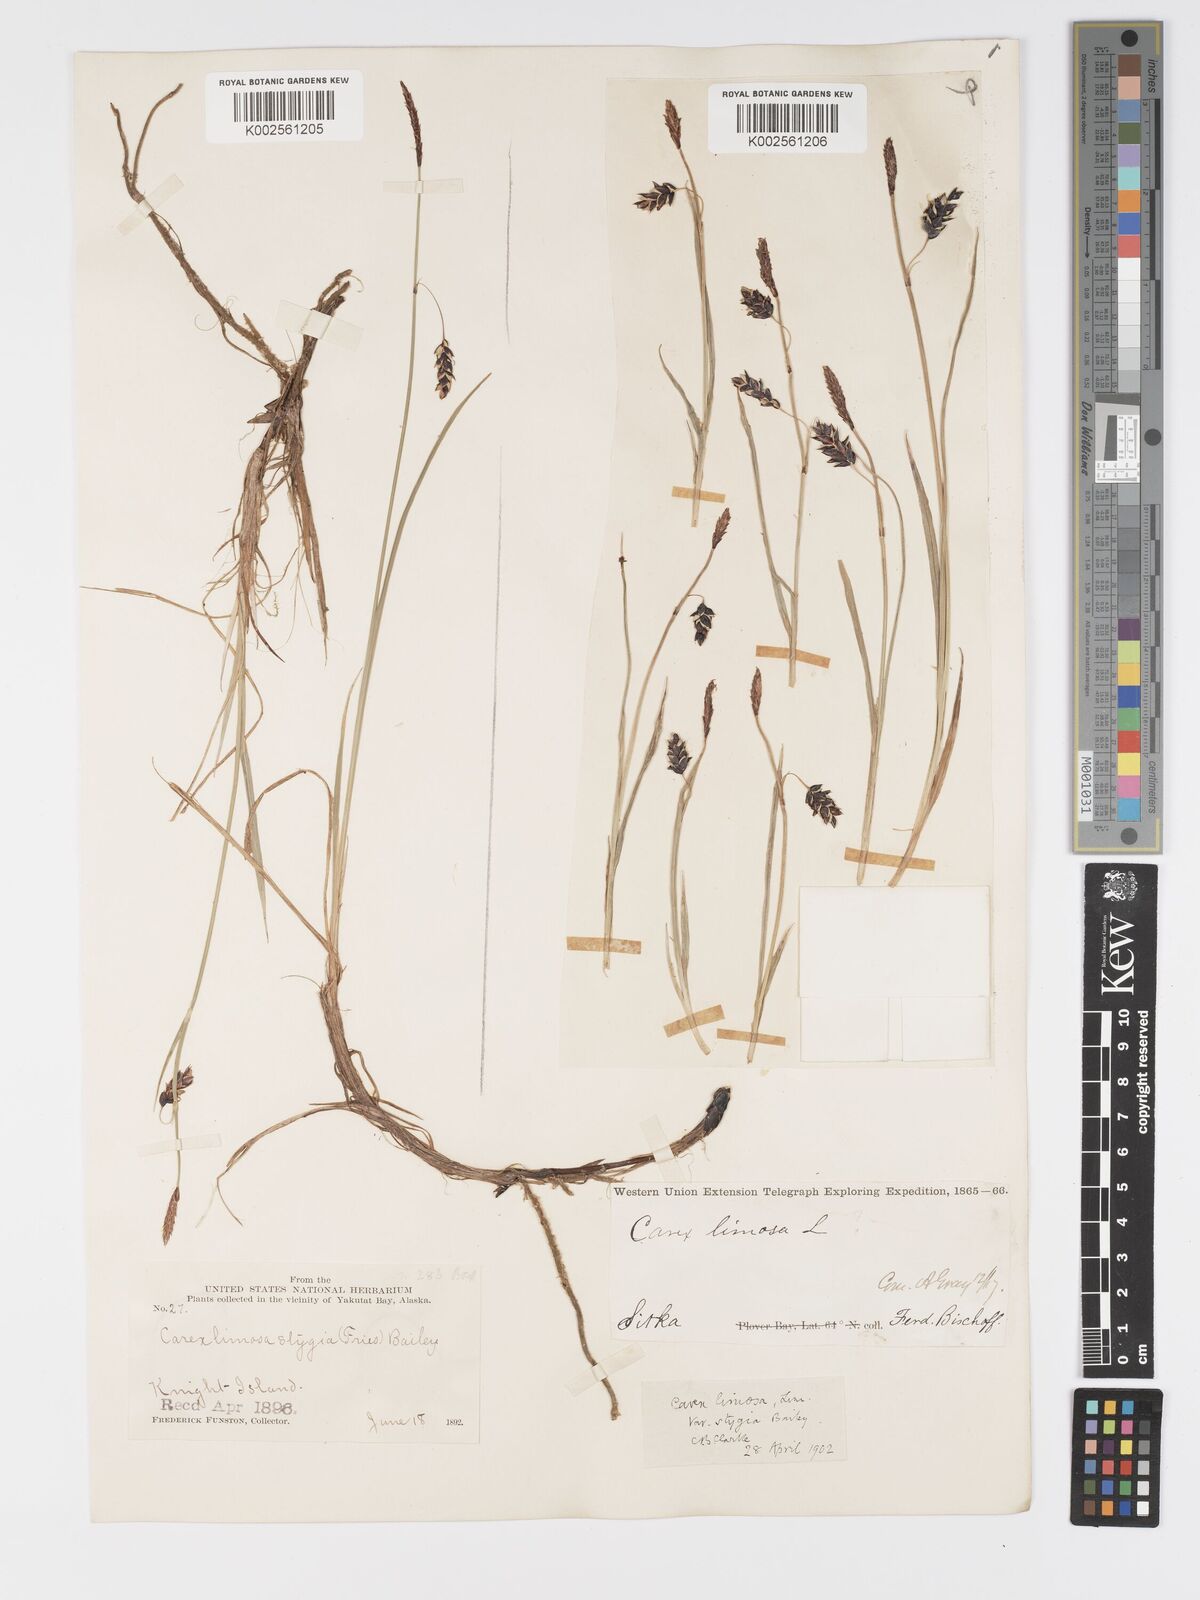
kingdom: Plantae
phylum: Tracheophyta
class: Liliopsida
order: Poales
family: Cyperaceae
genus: Carex
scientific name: Carex stygia
